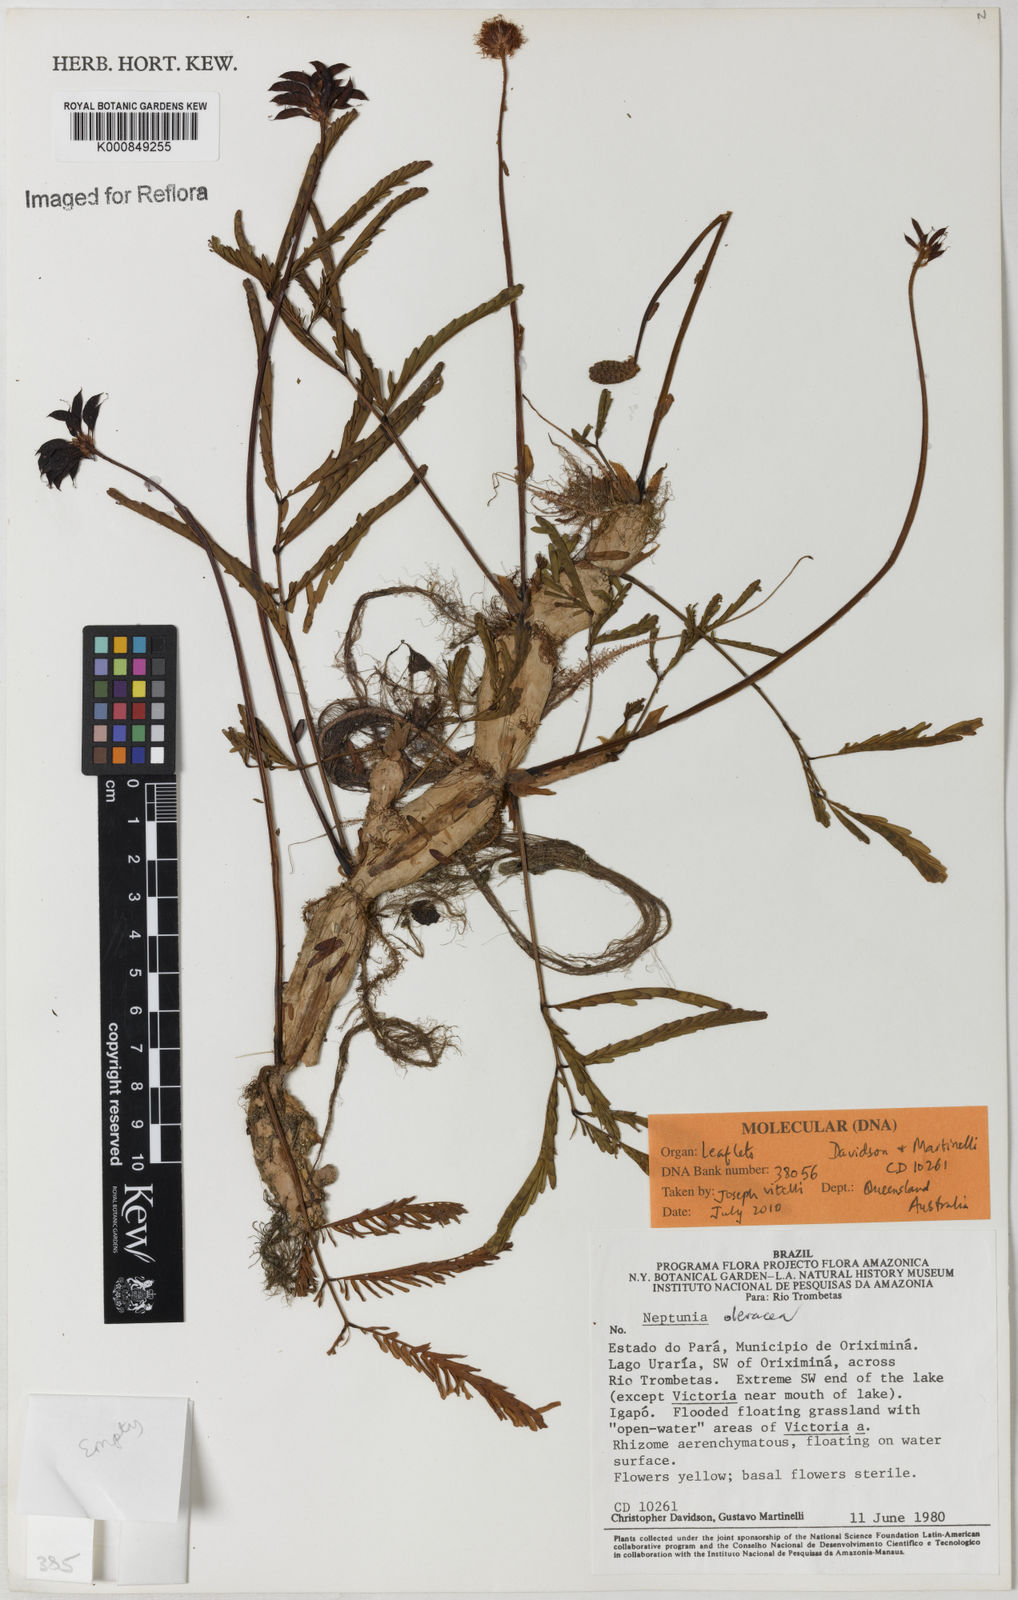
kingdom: Plantae
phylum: Tracheophyta
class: Magnoliopsida
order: Fabales
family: Fabaceae
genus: Neptunia
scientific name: Neptunia prostrata
